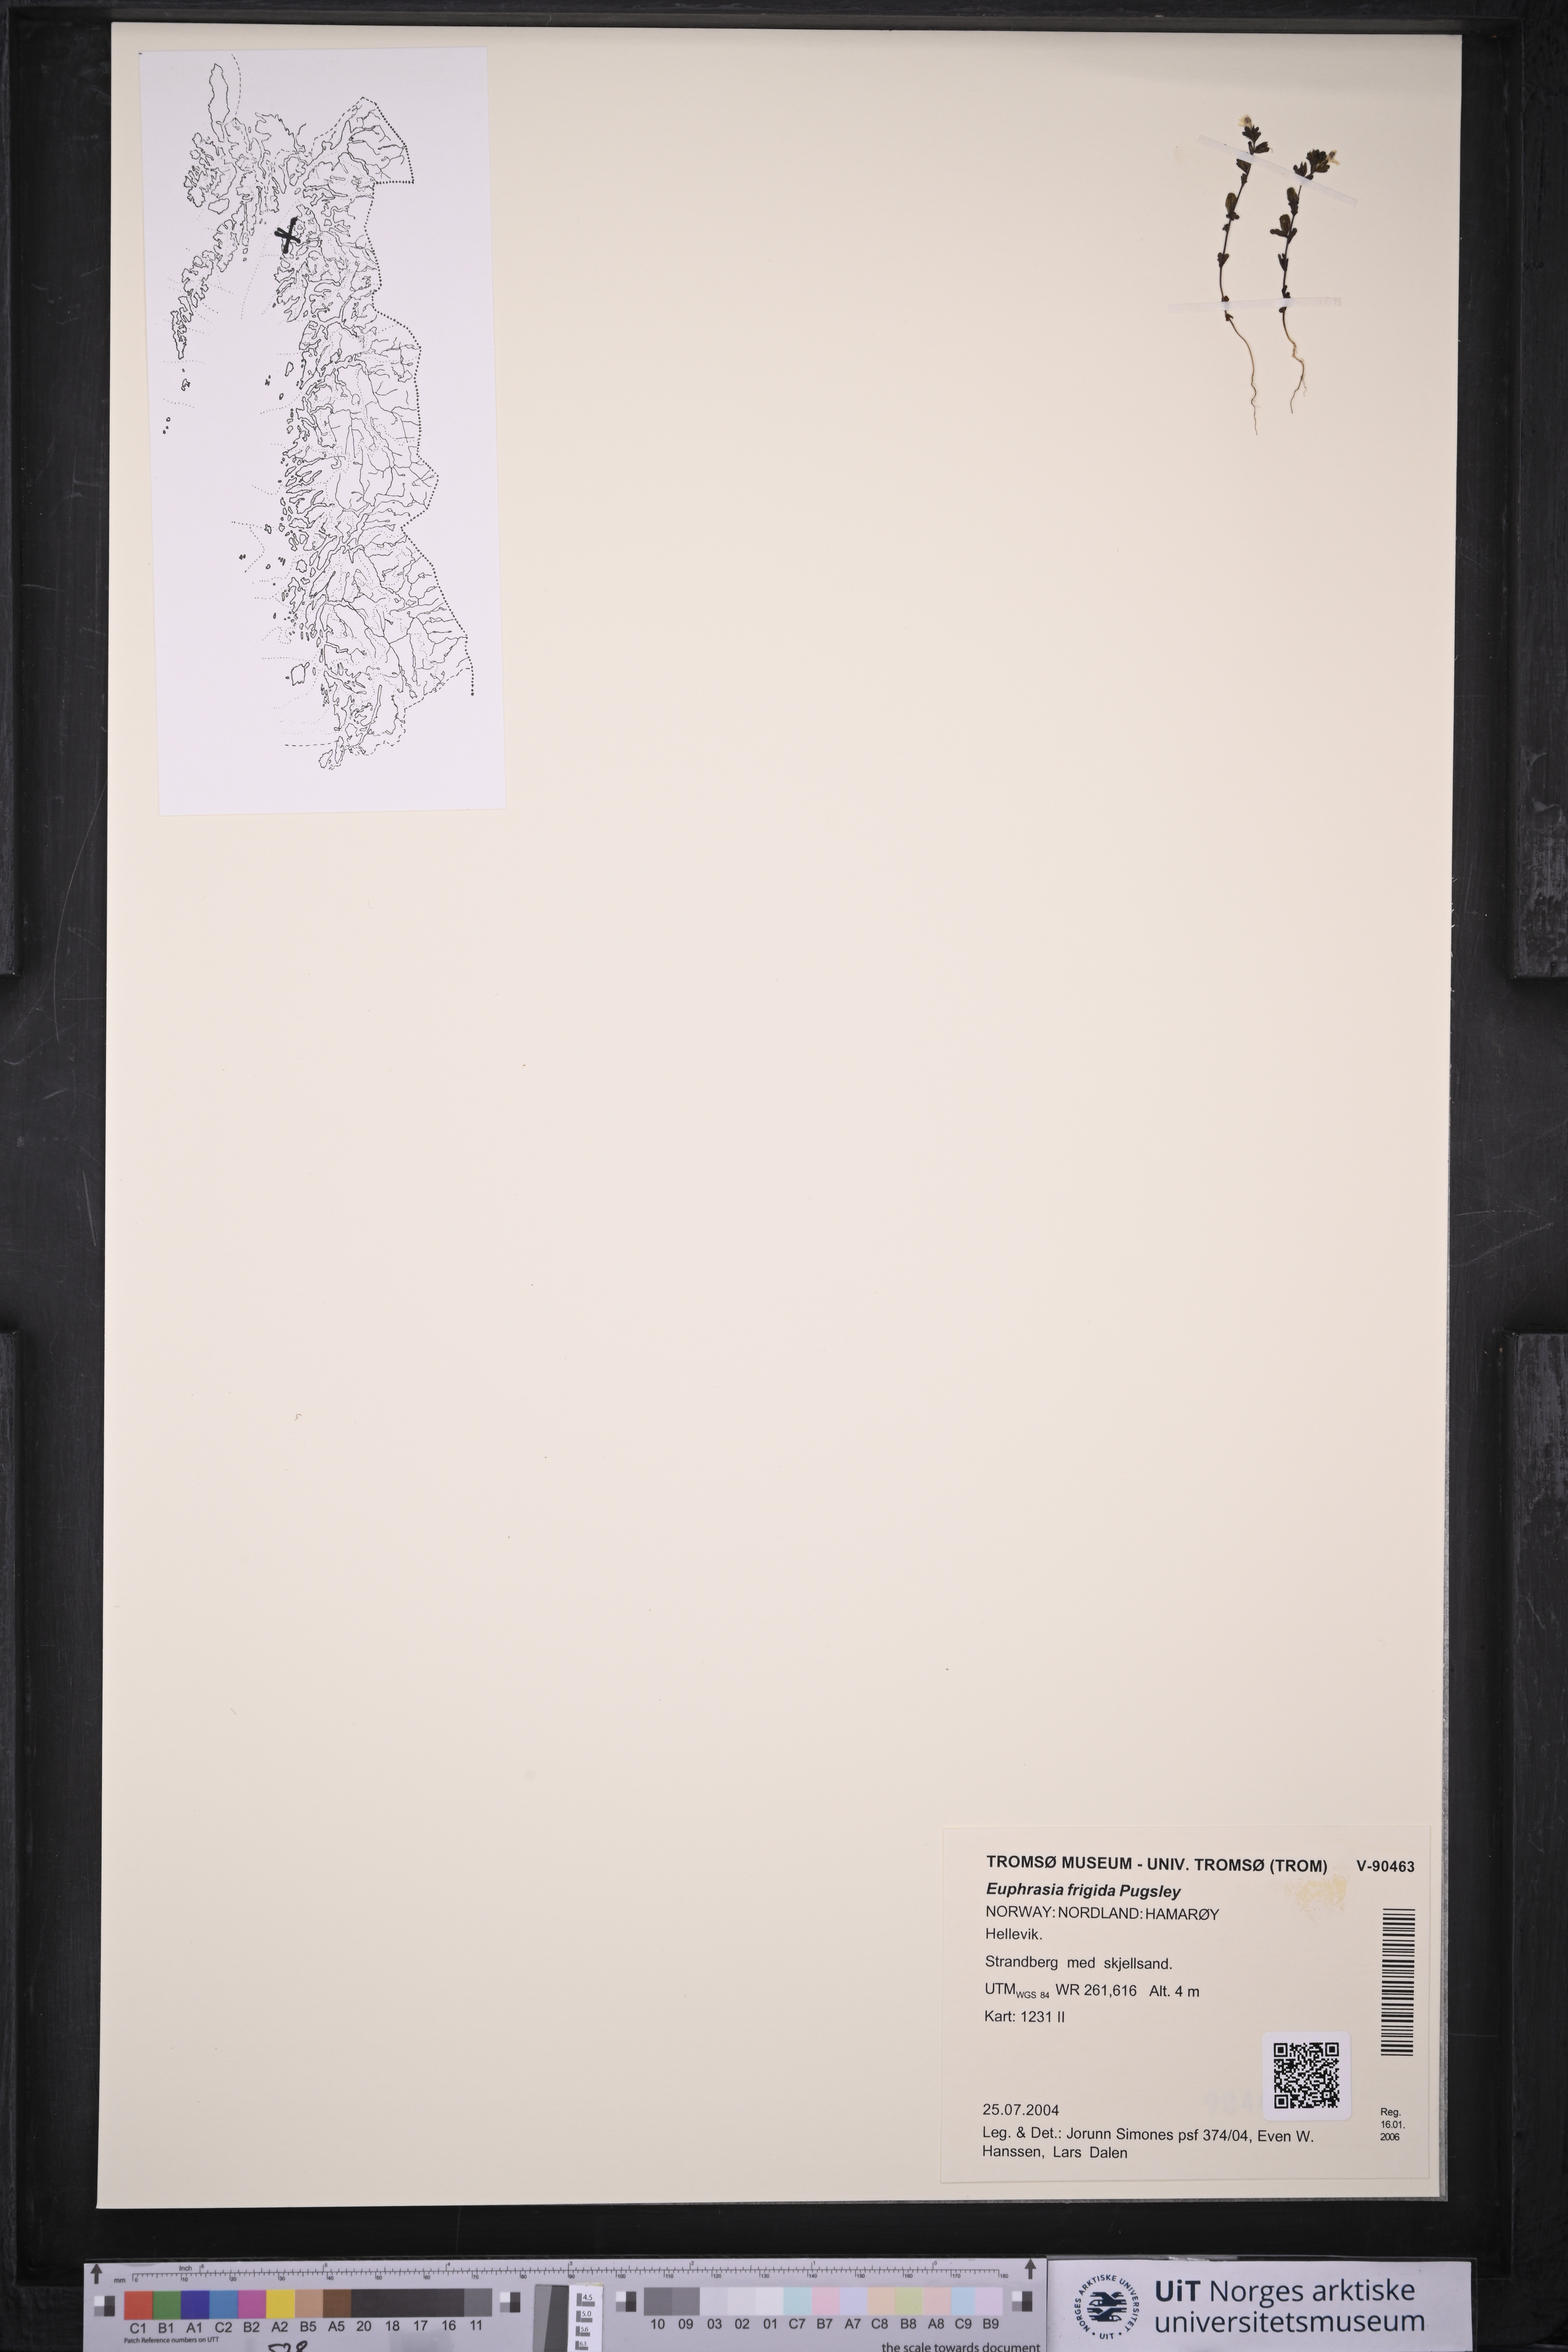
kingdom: Plantae
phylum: Tracheophyta
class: Magnoliopsida
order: Lamiales
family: Orobanchaceae
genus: Euphrasia
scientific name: Euphrasia frigida
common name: An eyebright
